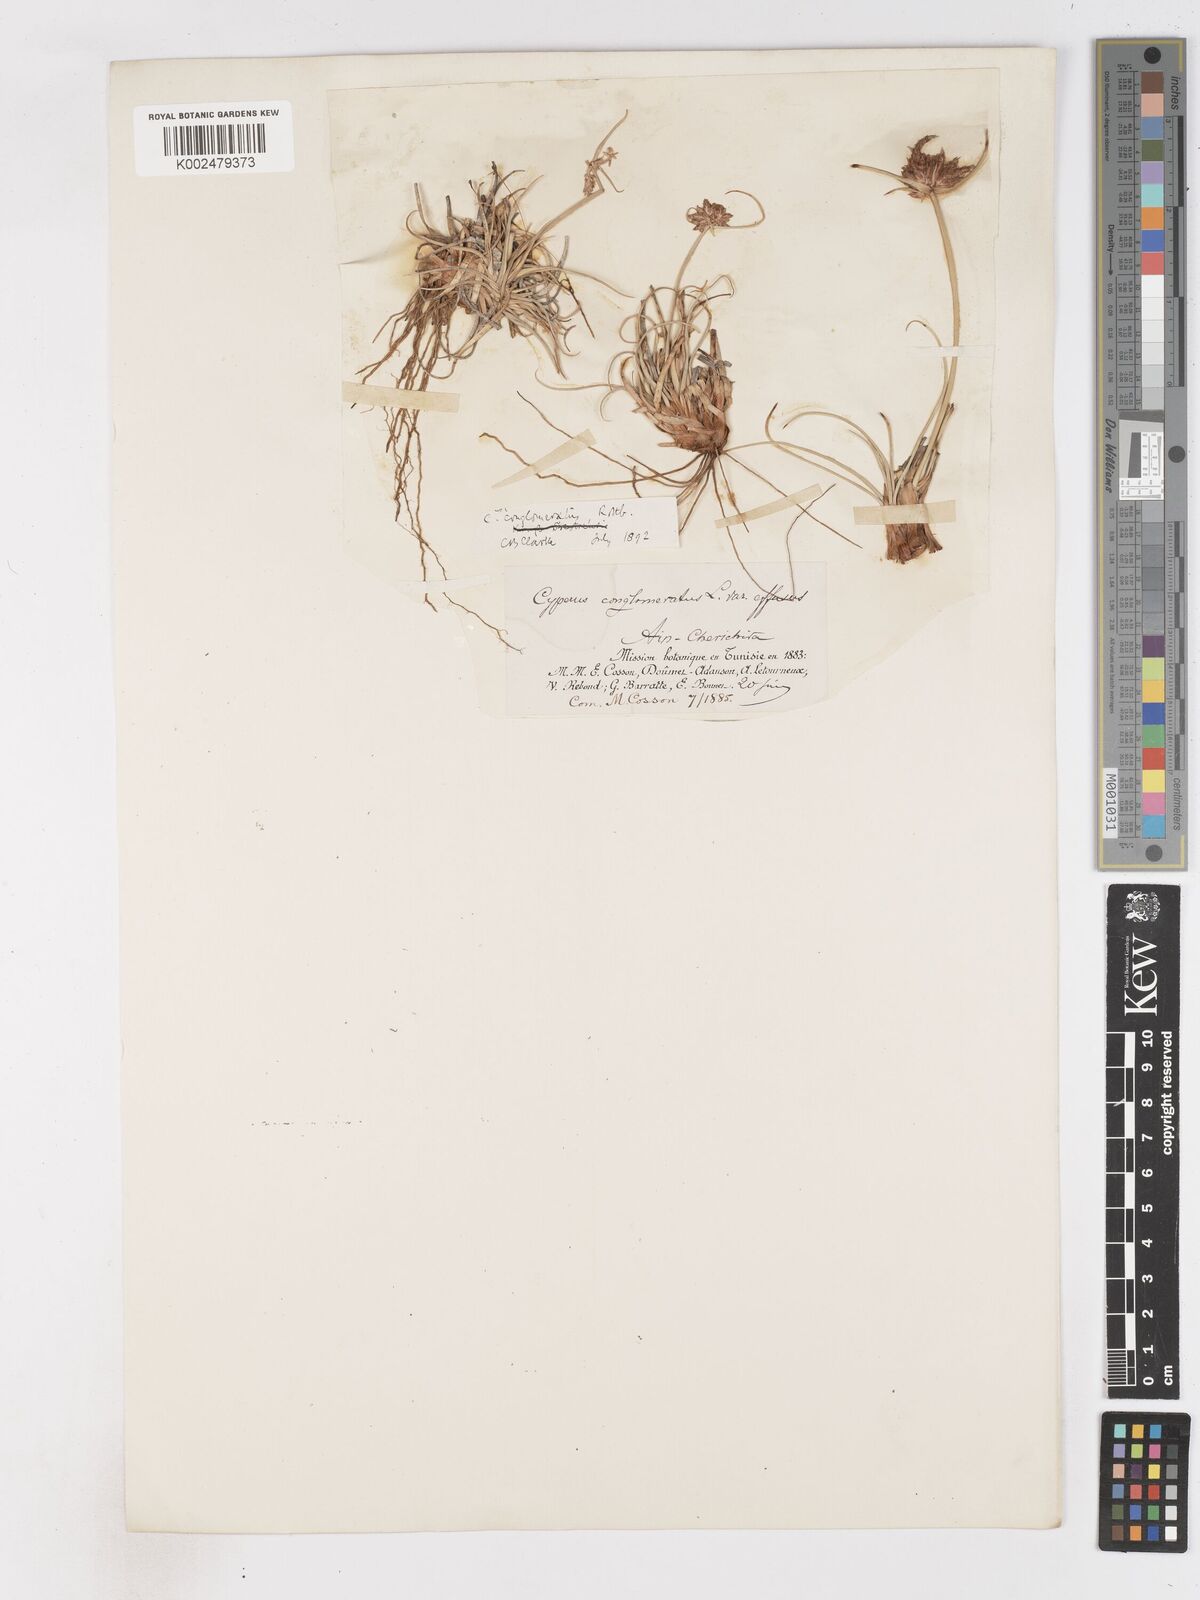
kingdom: Plantae
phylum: Tracheophyta
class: Liliopsida
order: Poales
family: Cyperaceae
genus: Cyperus
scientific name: Cyperus conglomeratus
